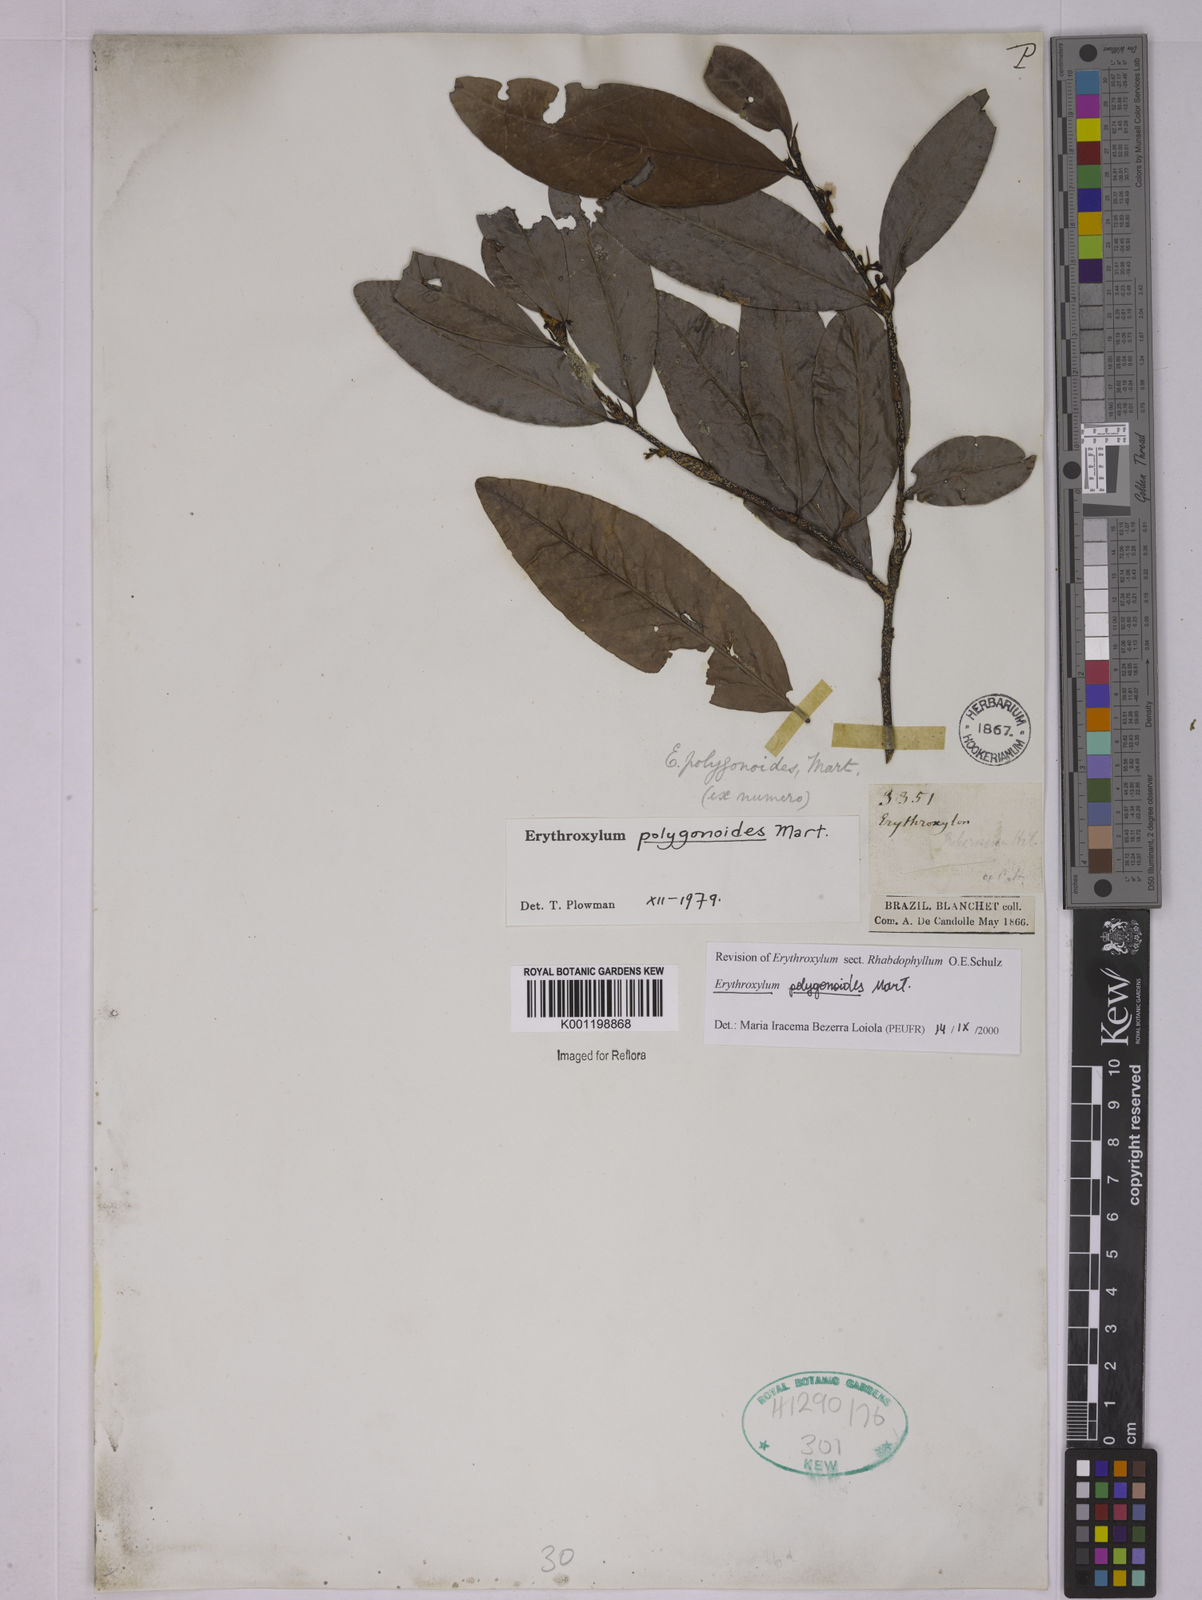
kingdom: Plantae
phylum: Tracheophyta
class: Magnoliopsida
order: Malpighiales
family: Erythroxylaceae
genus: Erythroxylum
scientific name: Erythroxylum polygonoides
